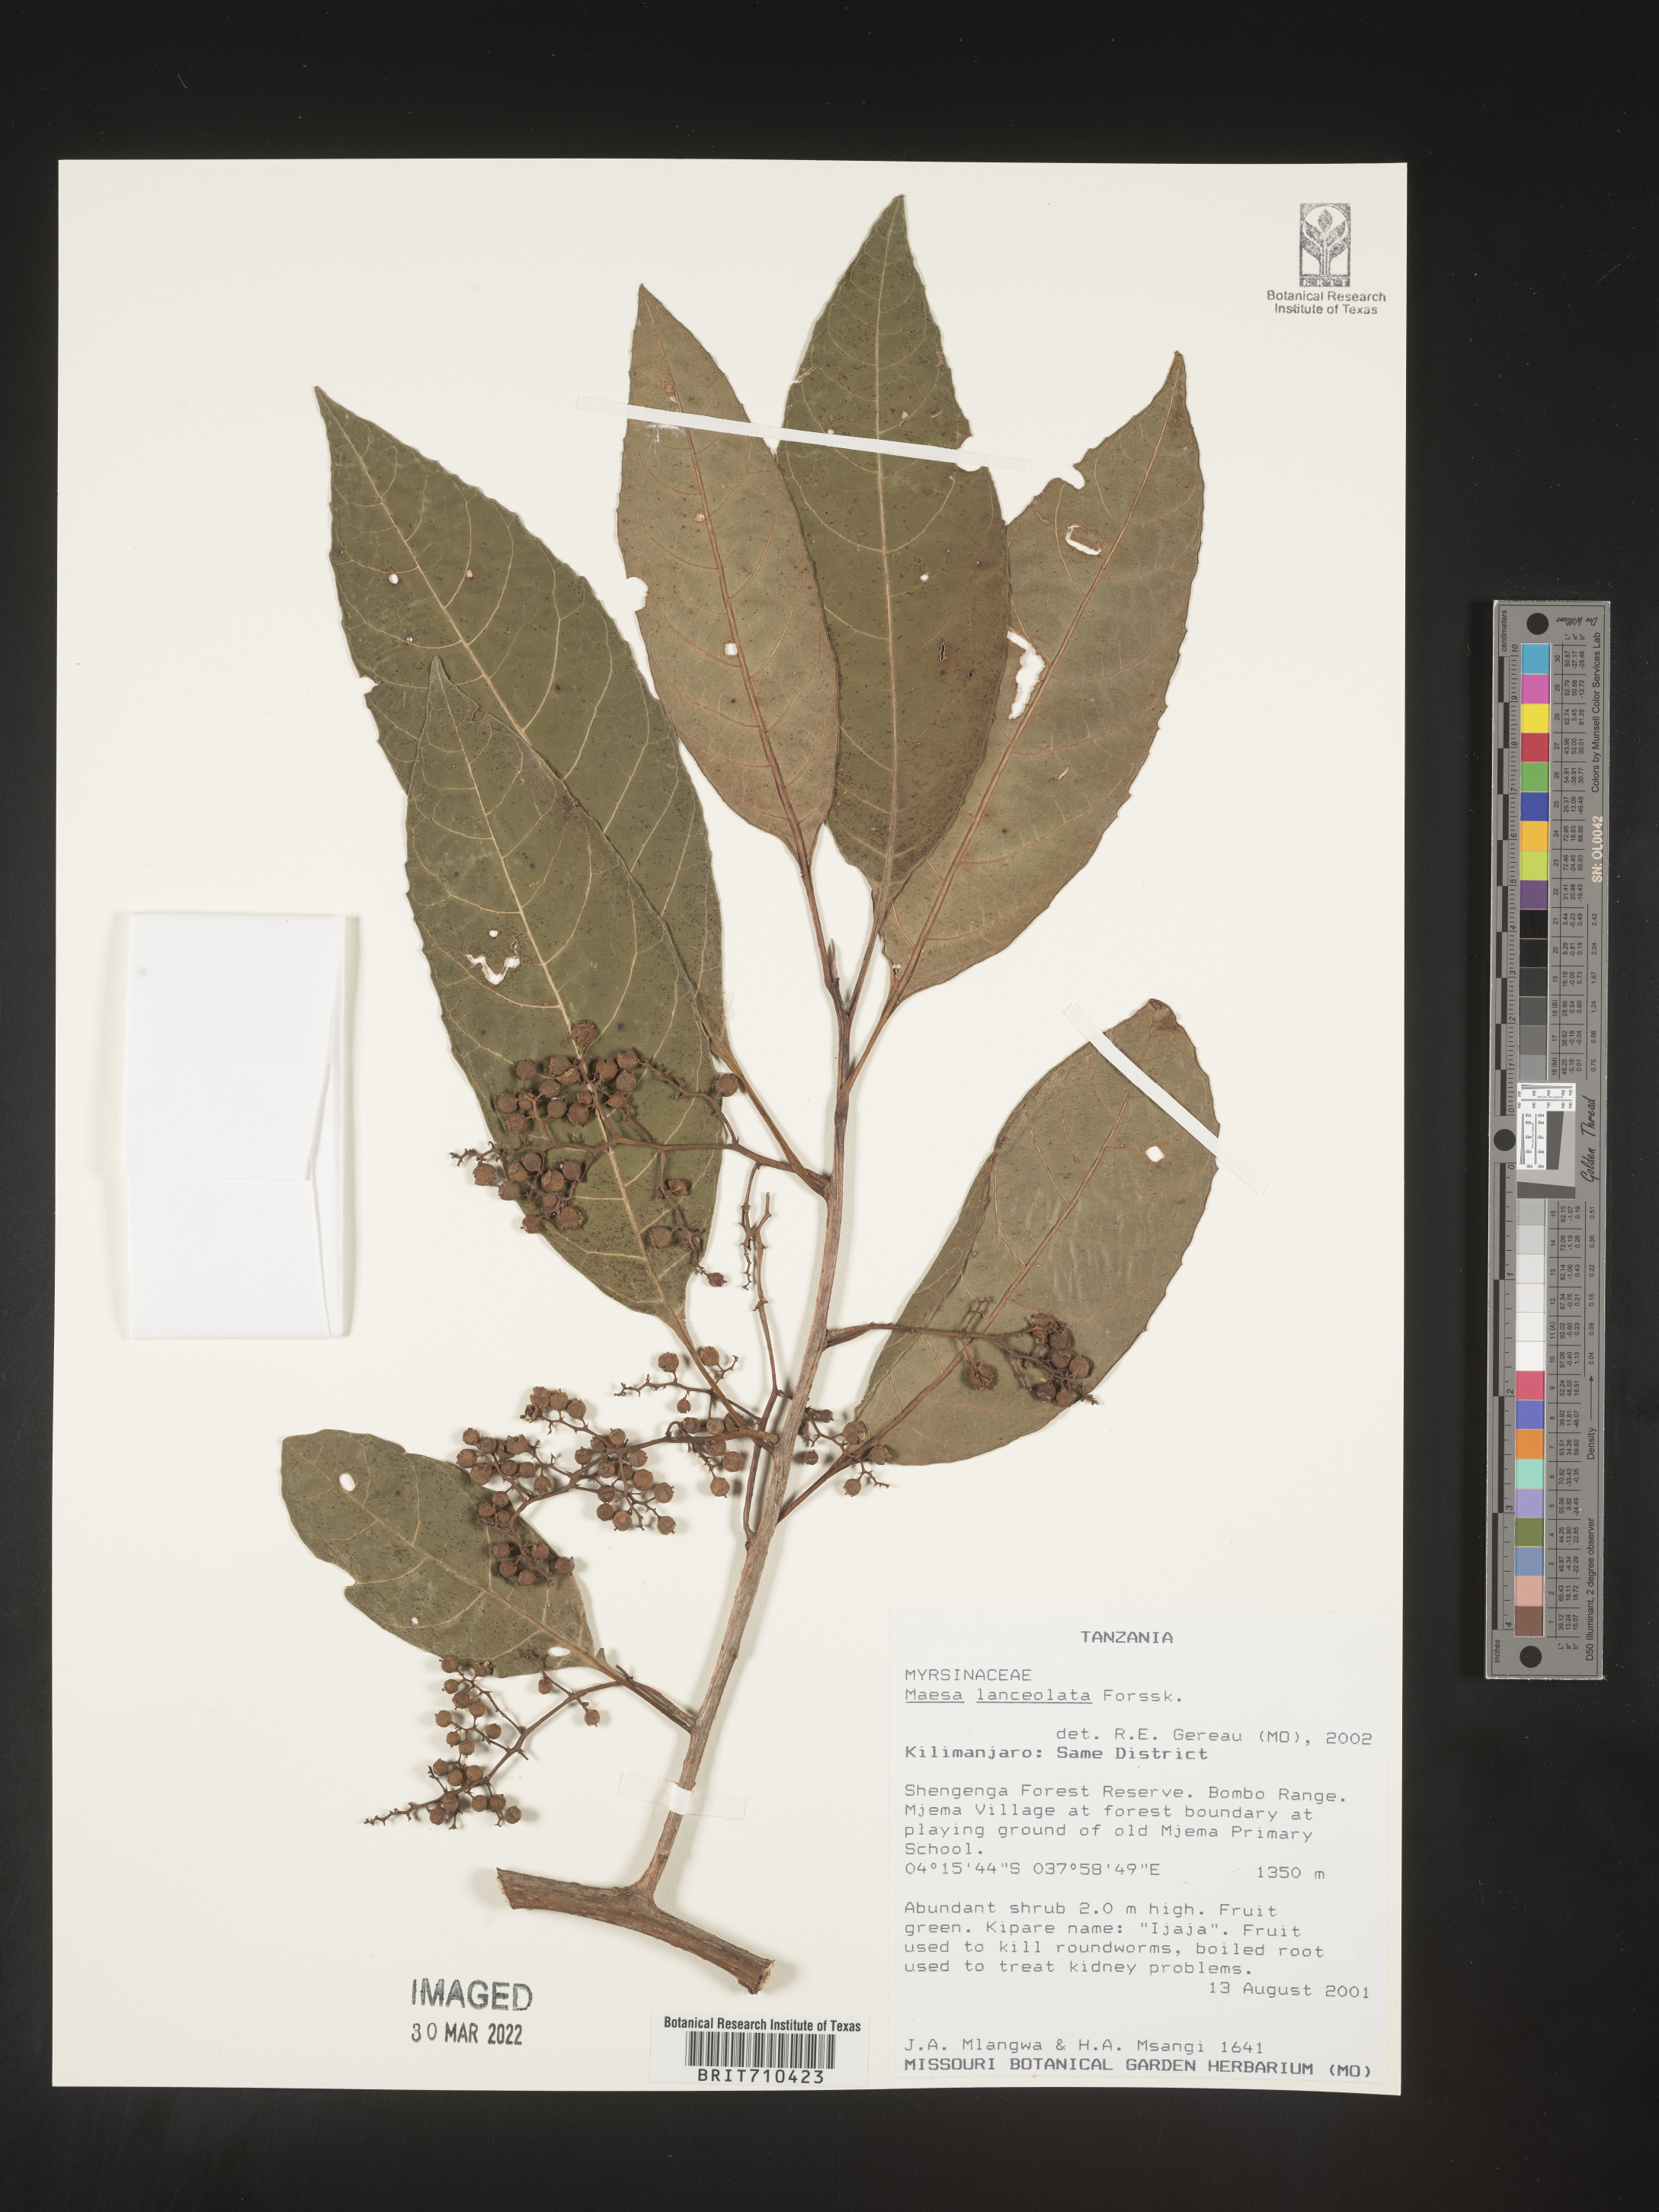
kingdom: Plantae
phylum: Tracheophyta
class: Magnoliopsida
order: Ericales
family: Primulaceae
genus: Maesa
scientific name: Maesa
